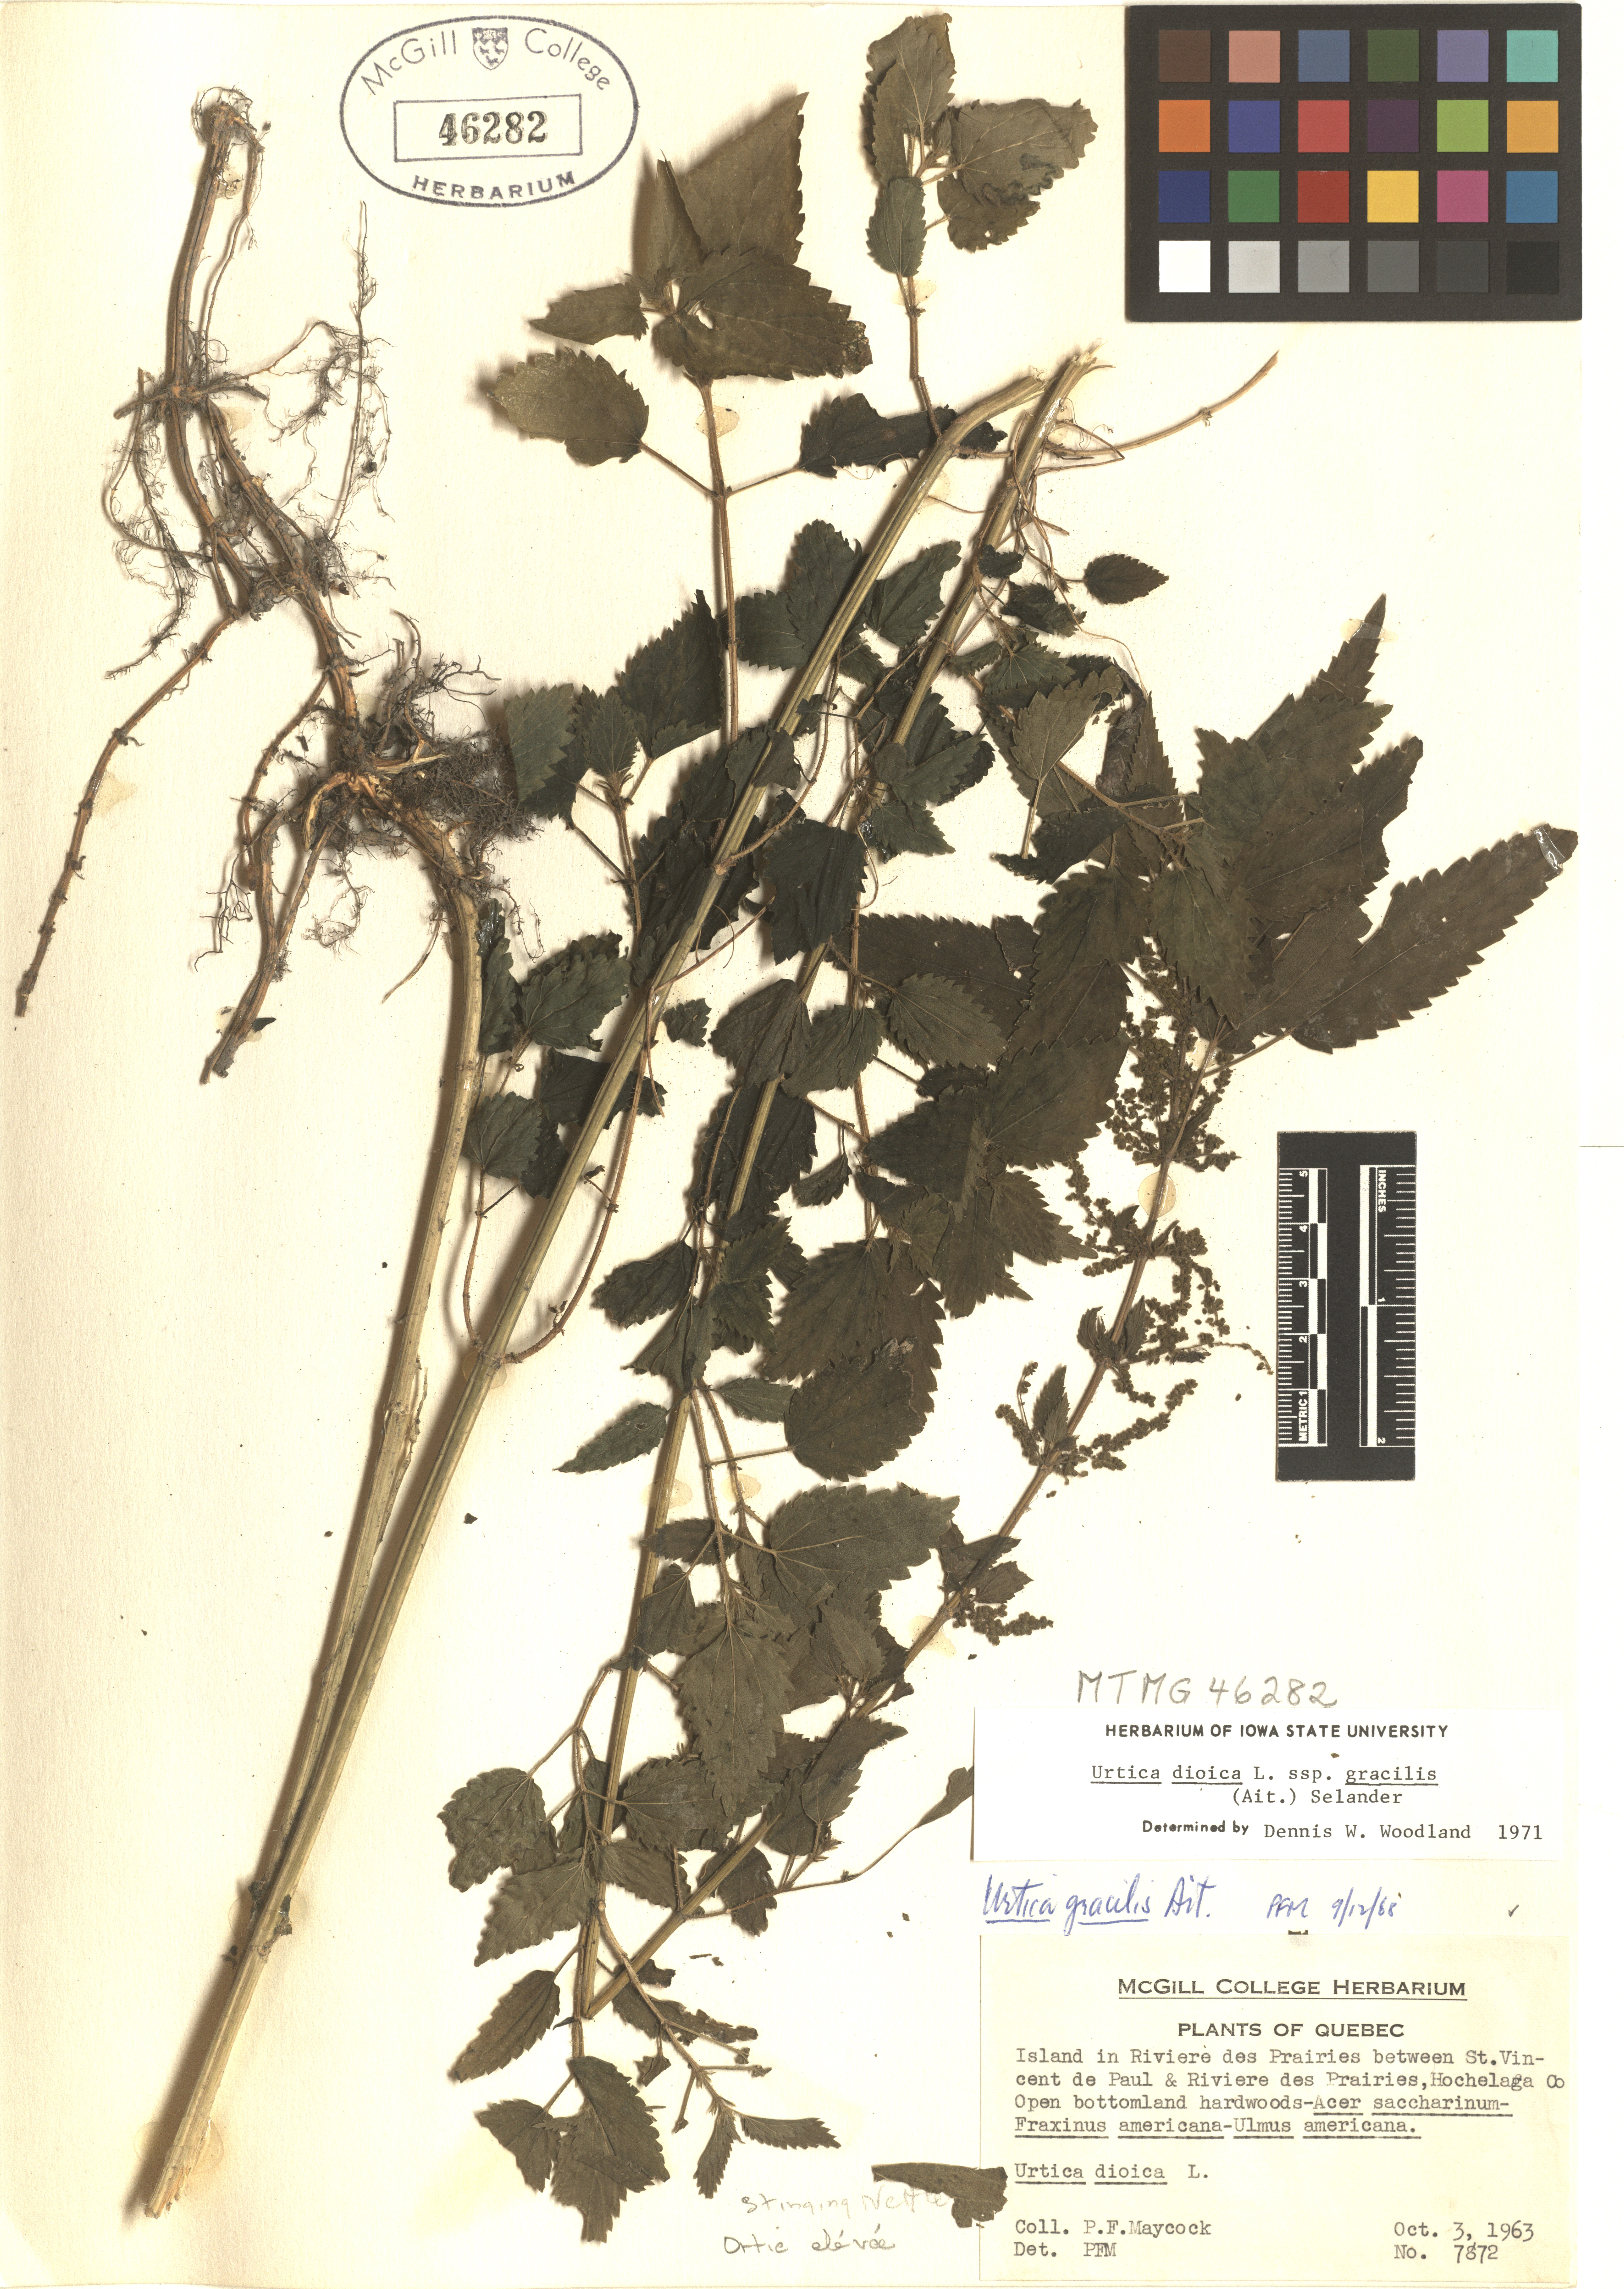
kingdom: Plantae
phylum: Tracheophyta
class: Magnoliopsida
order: Rosales
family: Urticaceae
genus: Urtica
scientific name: Urtica gracilis
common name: Slender stinging nettle
